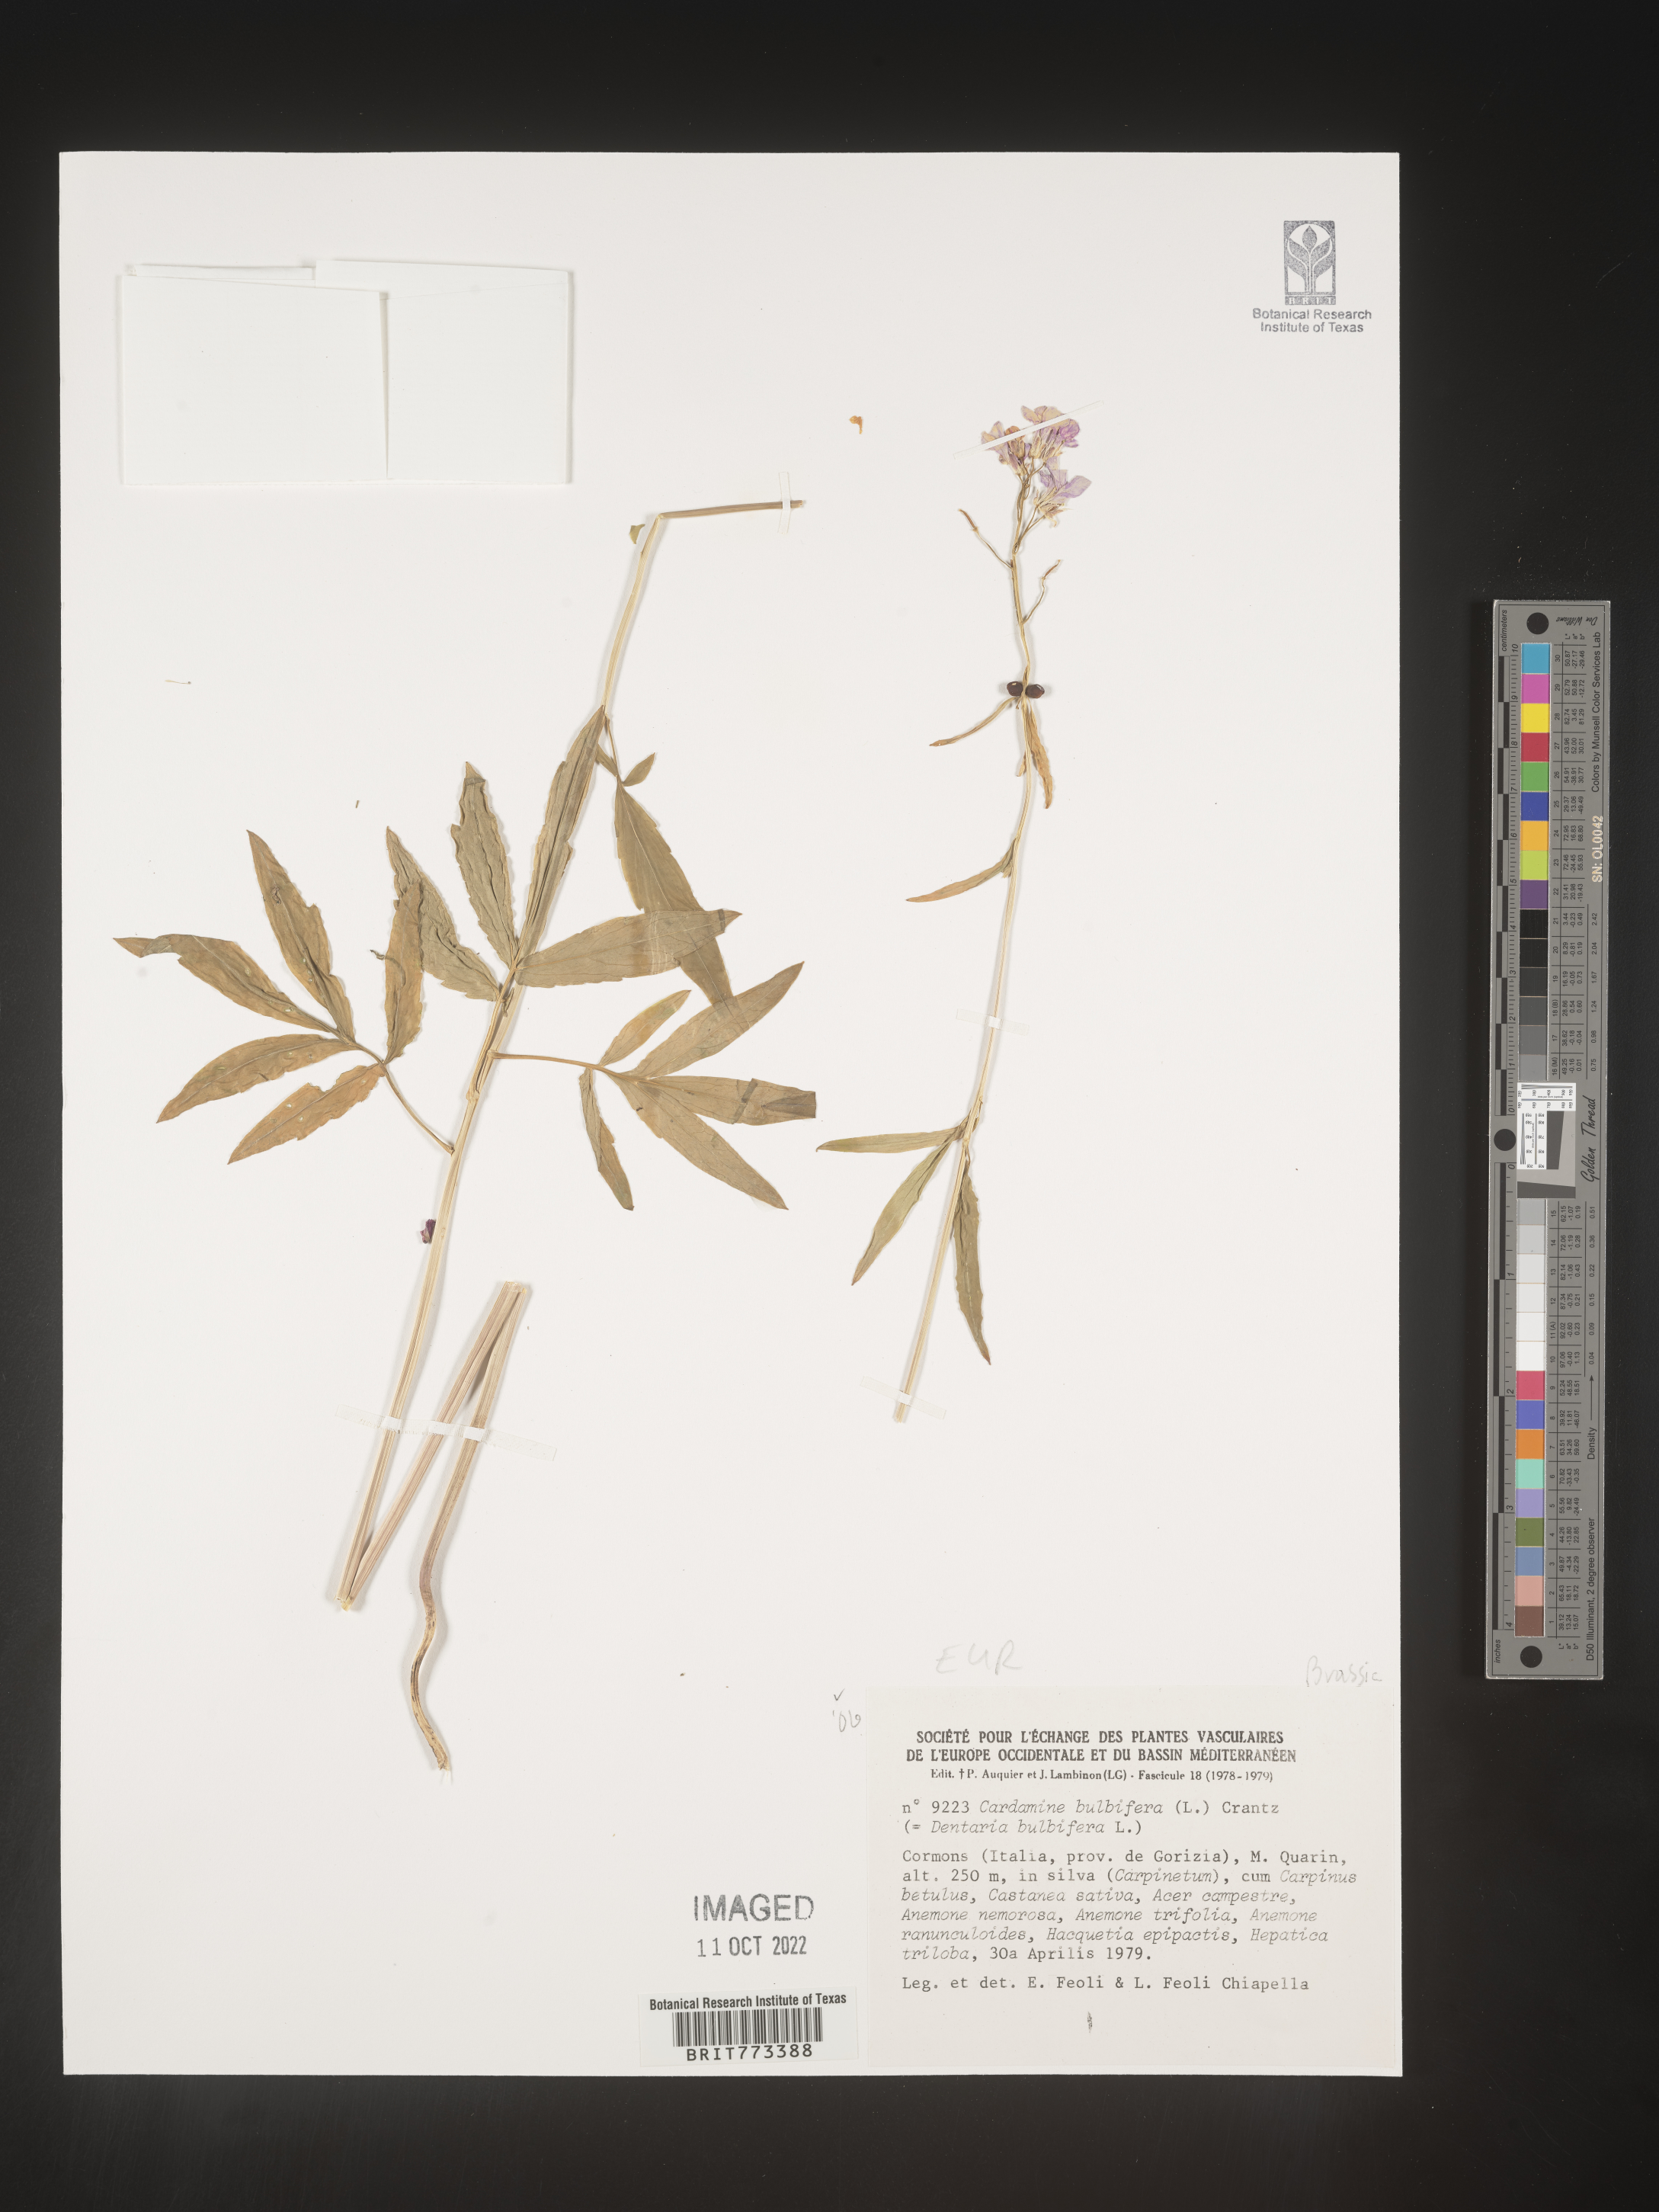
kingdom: Plantae
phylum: Tracheophyta
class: Magnoliopsida
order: Brassicales
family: Brassicaceae
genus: Cardamine
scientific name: Cardamine
